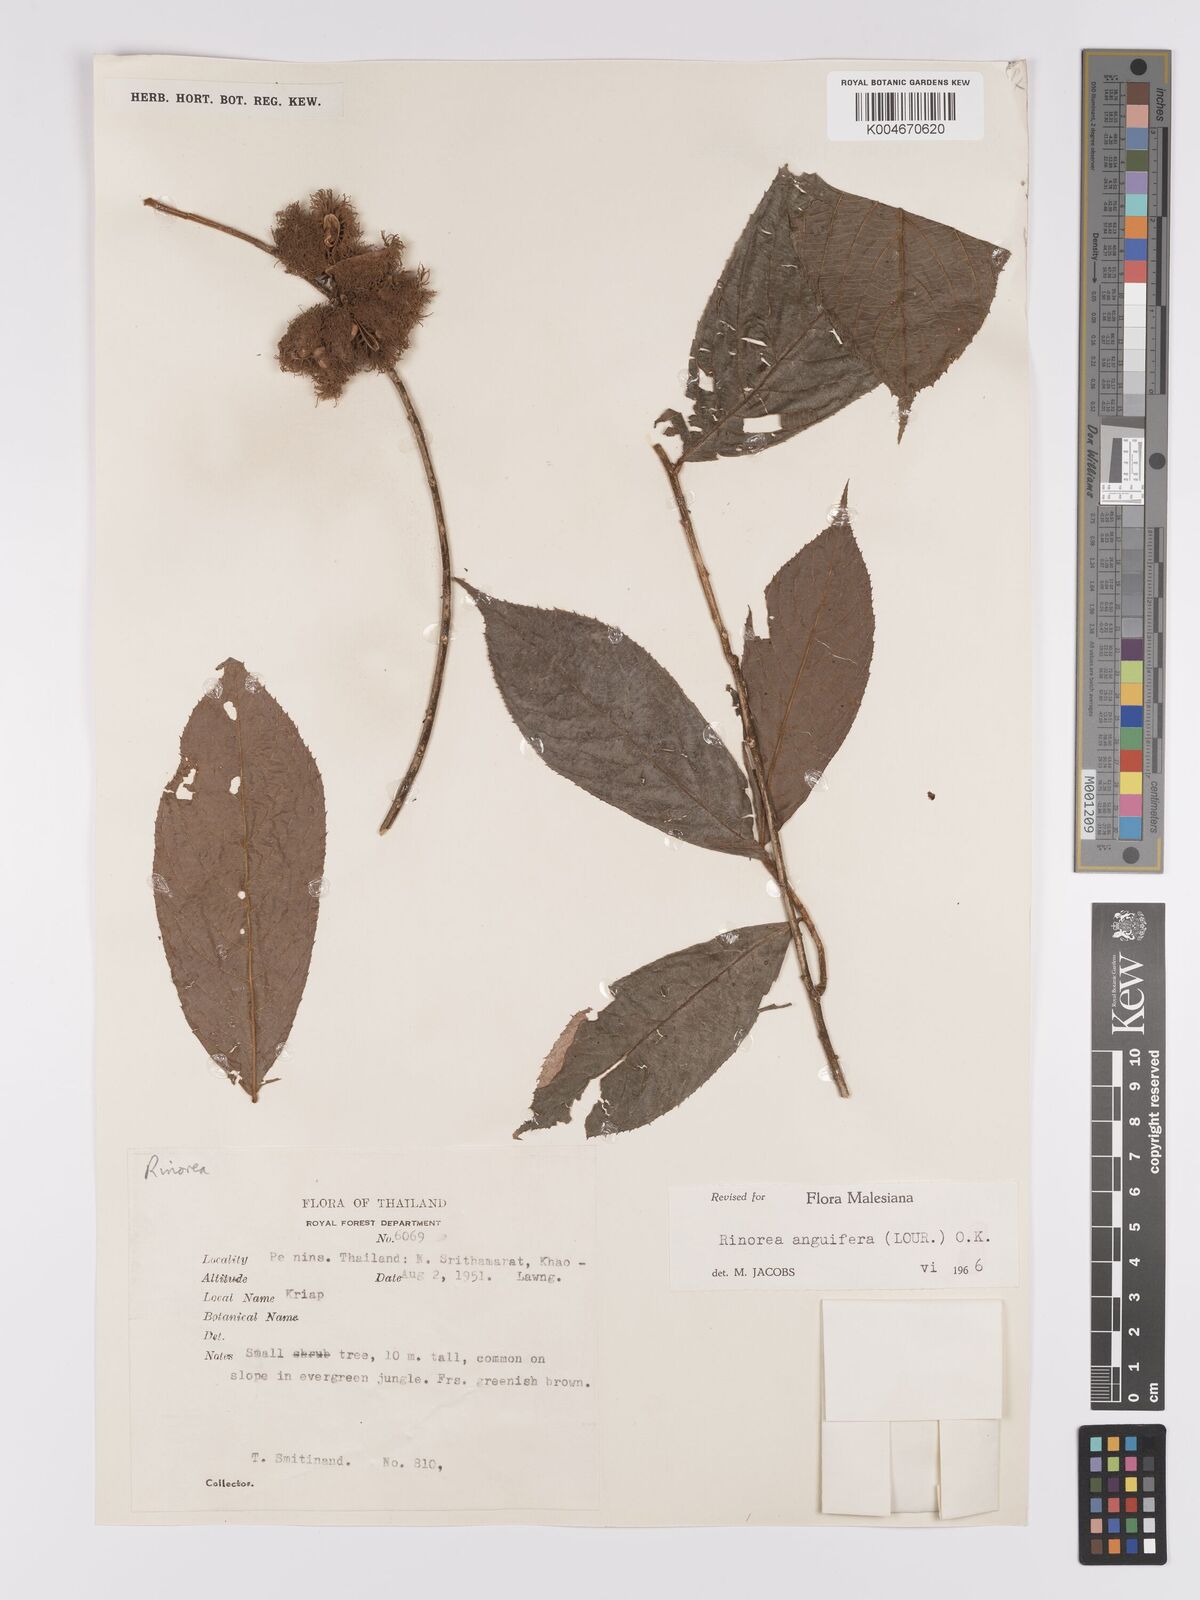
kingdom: Plantae
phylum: Tracheophyta
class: Magnoliopsida
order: Malpighiales
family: Violaceae
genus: Rinorea
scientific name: Rinorea anguifera
